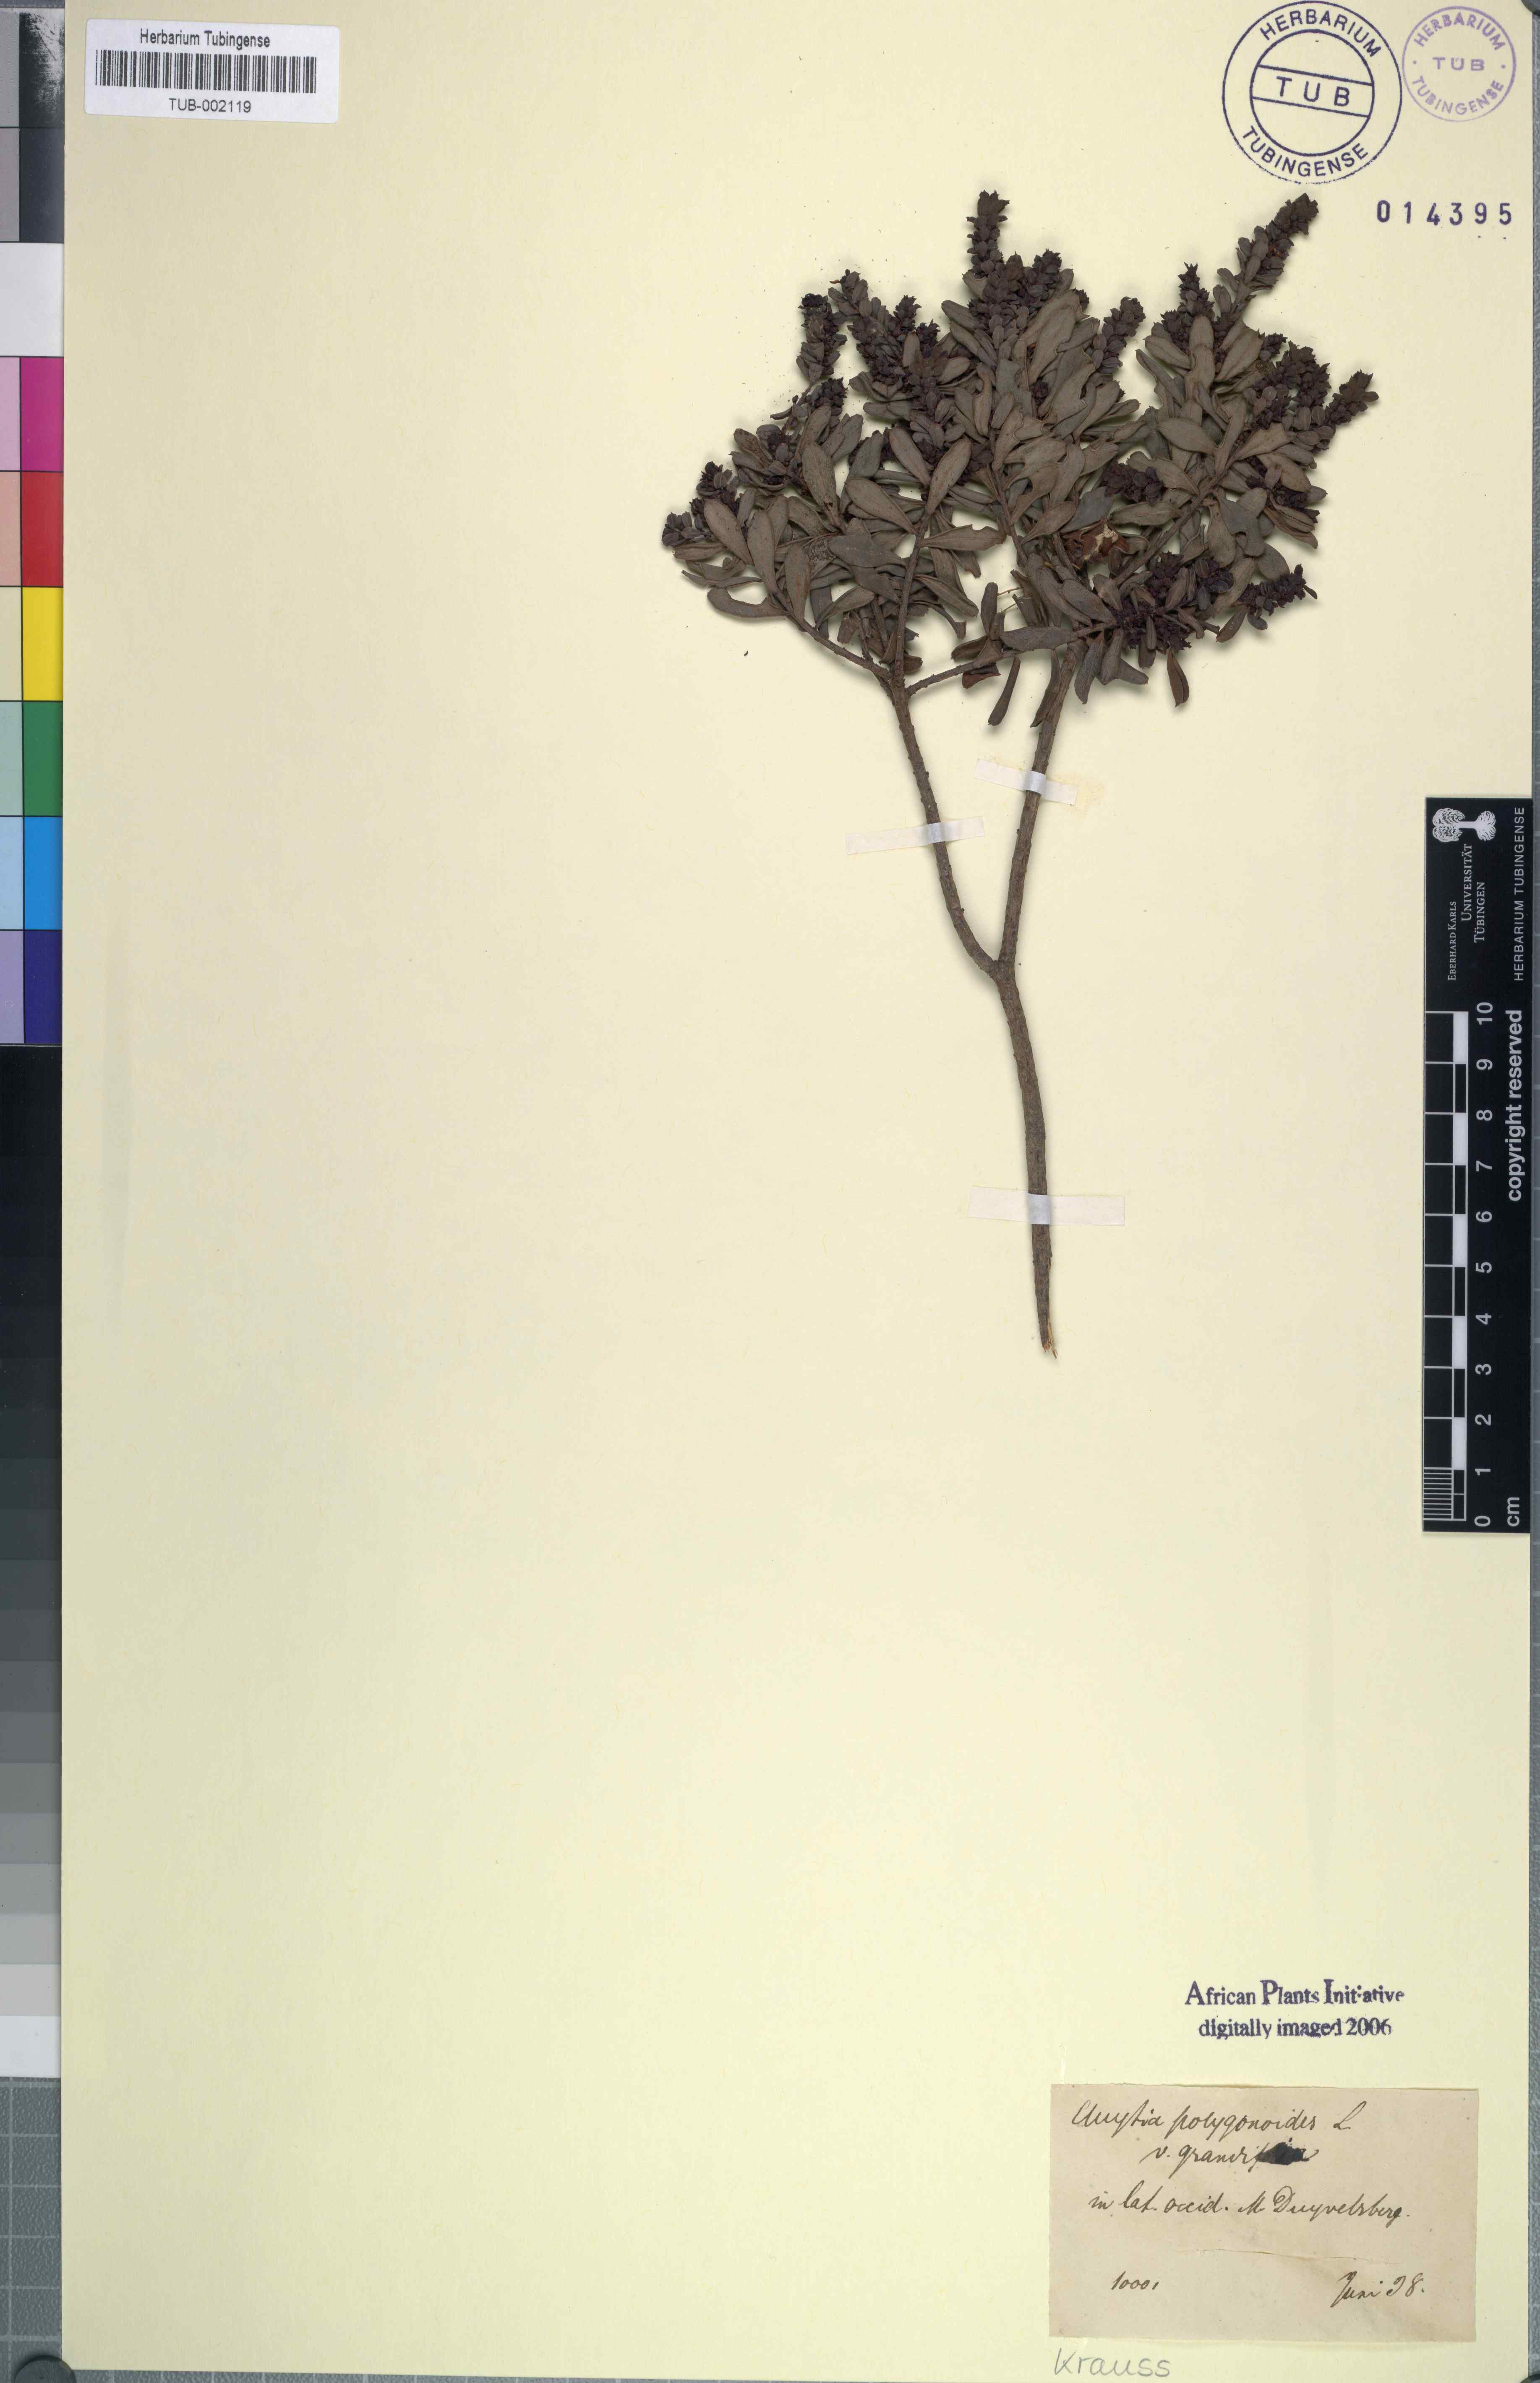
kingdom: Plantae
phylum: Tracheophyta
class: Magnoliopsida
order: Malpighiales
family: Peraceae
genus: Clutia
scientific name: Clutia polygonoides
